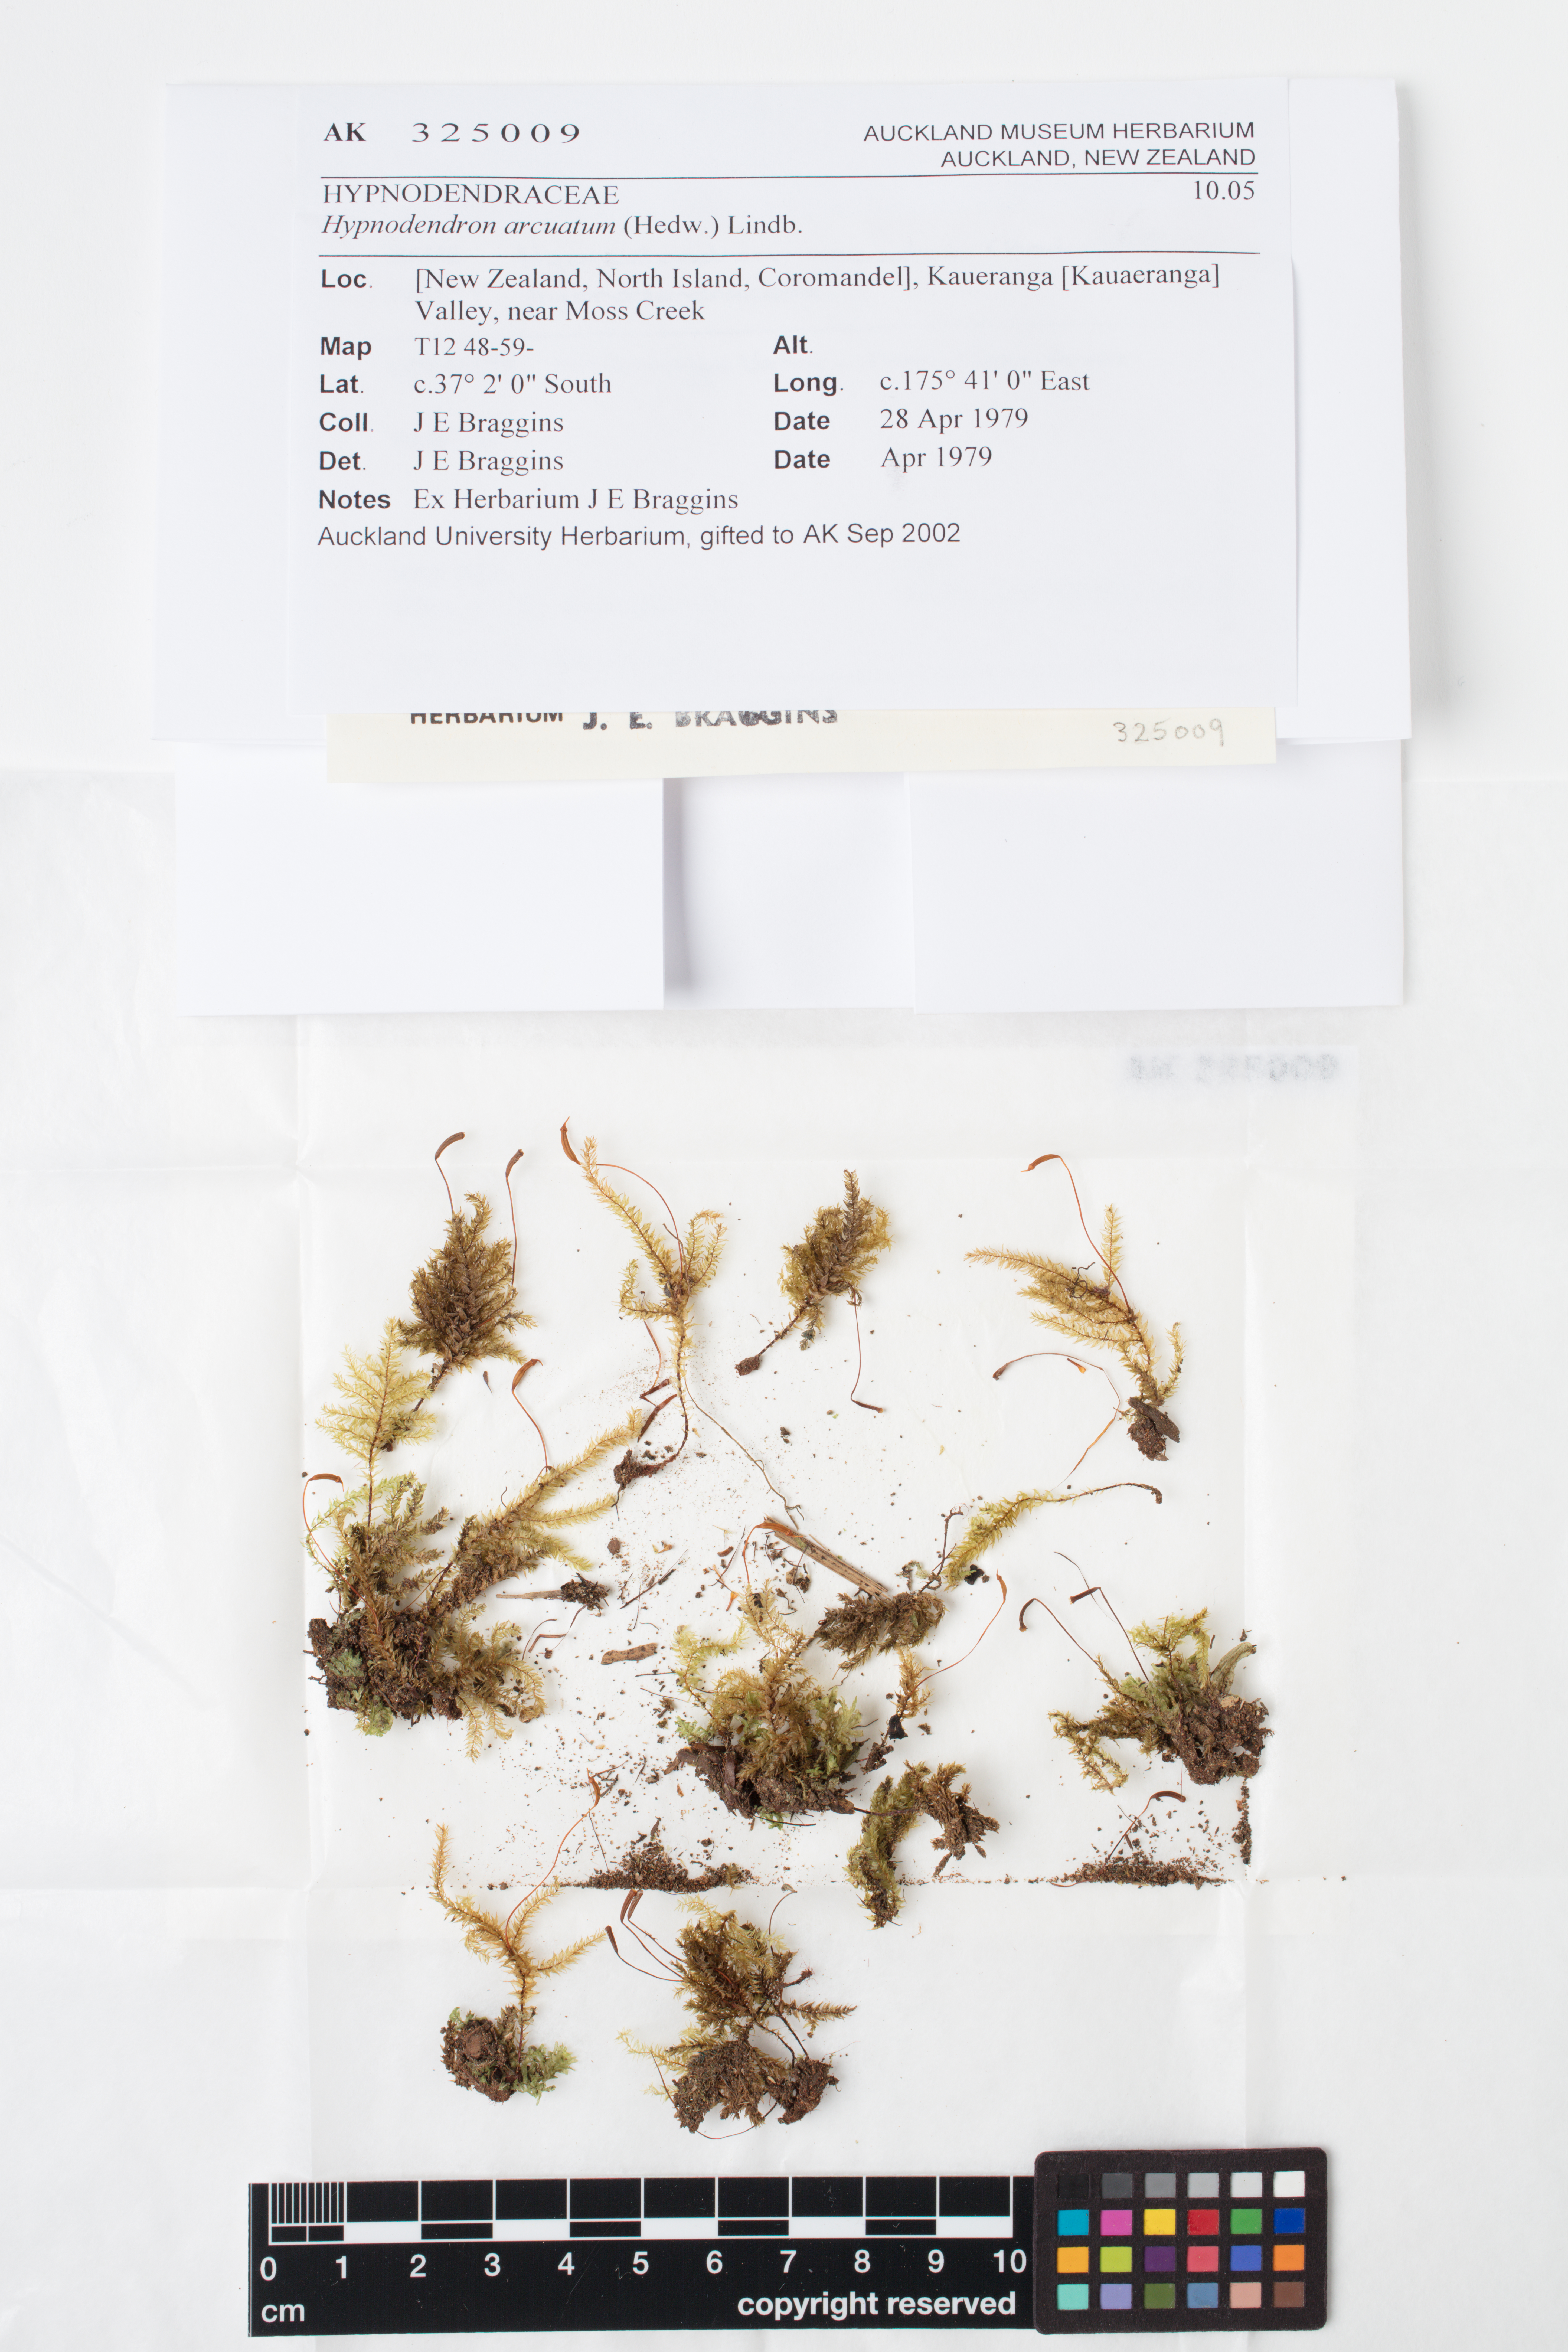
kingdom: Plantae
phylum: Bryophyta
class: Bryopsida
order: Hypnodendrales
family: Spiridentaceae
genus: Hypnodendron
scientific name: Hypnodendron arcuatum
